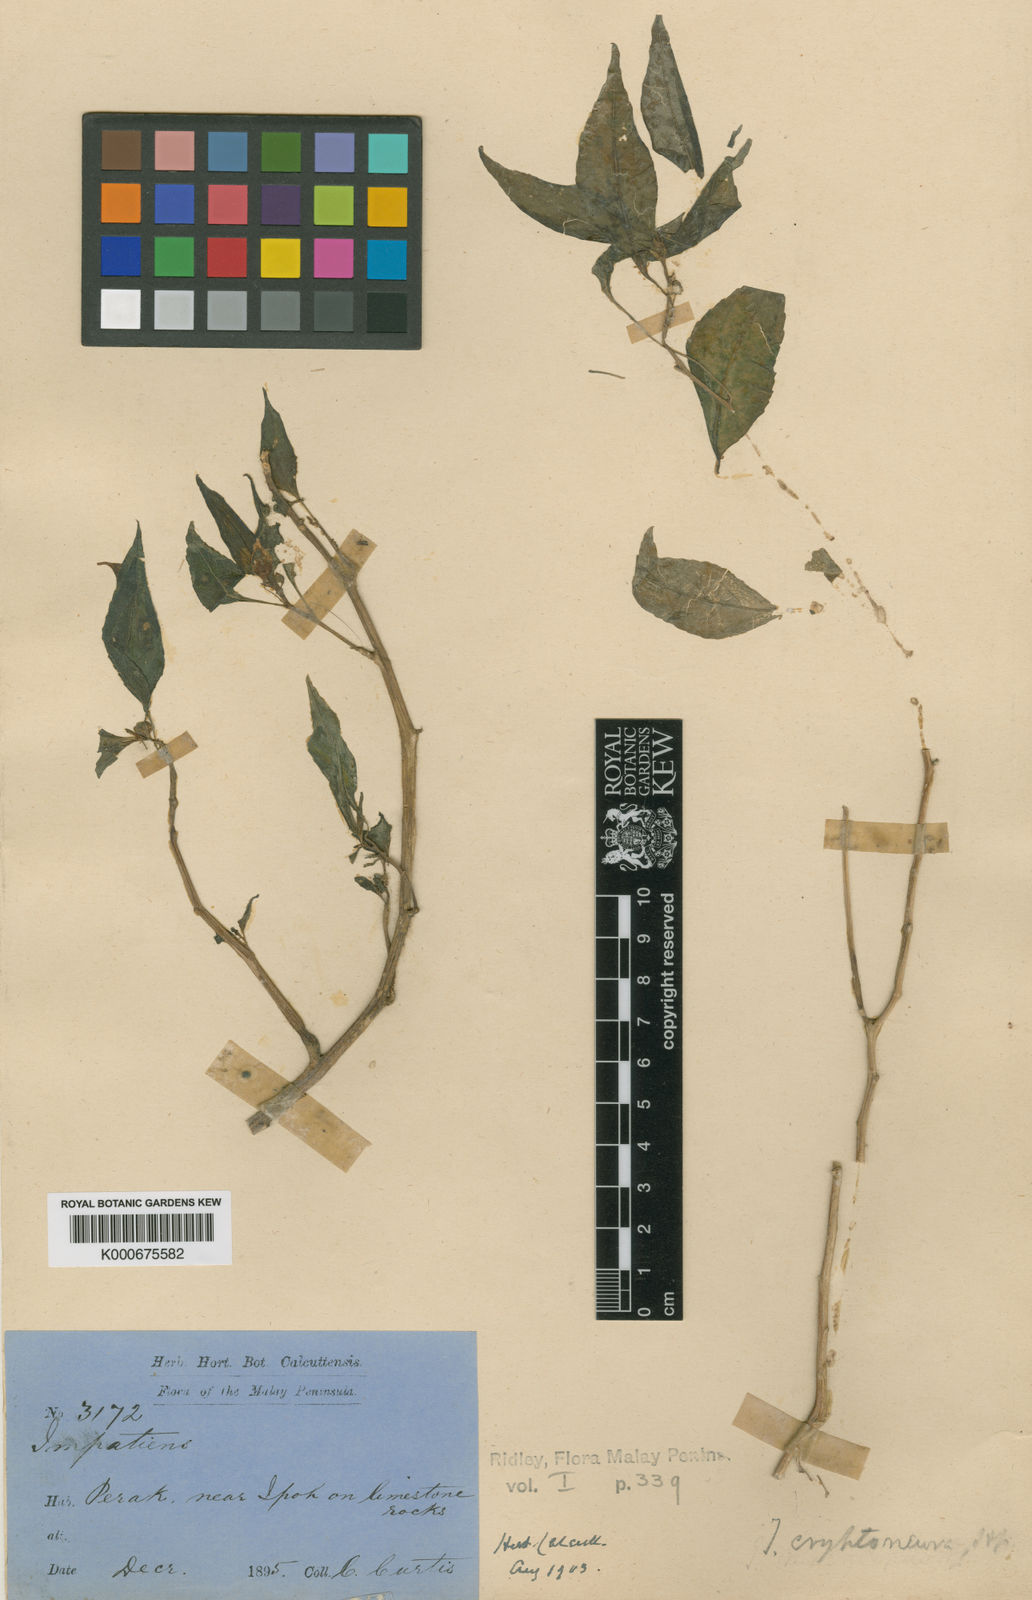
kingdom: Plantae
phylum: Tracheophyta
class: Magnoliopsida
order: Ericales
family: Balsaminaceae
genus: Impatiens
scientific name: Impatiens cryptoneura
